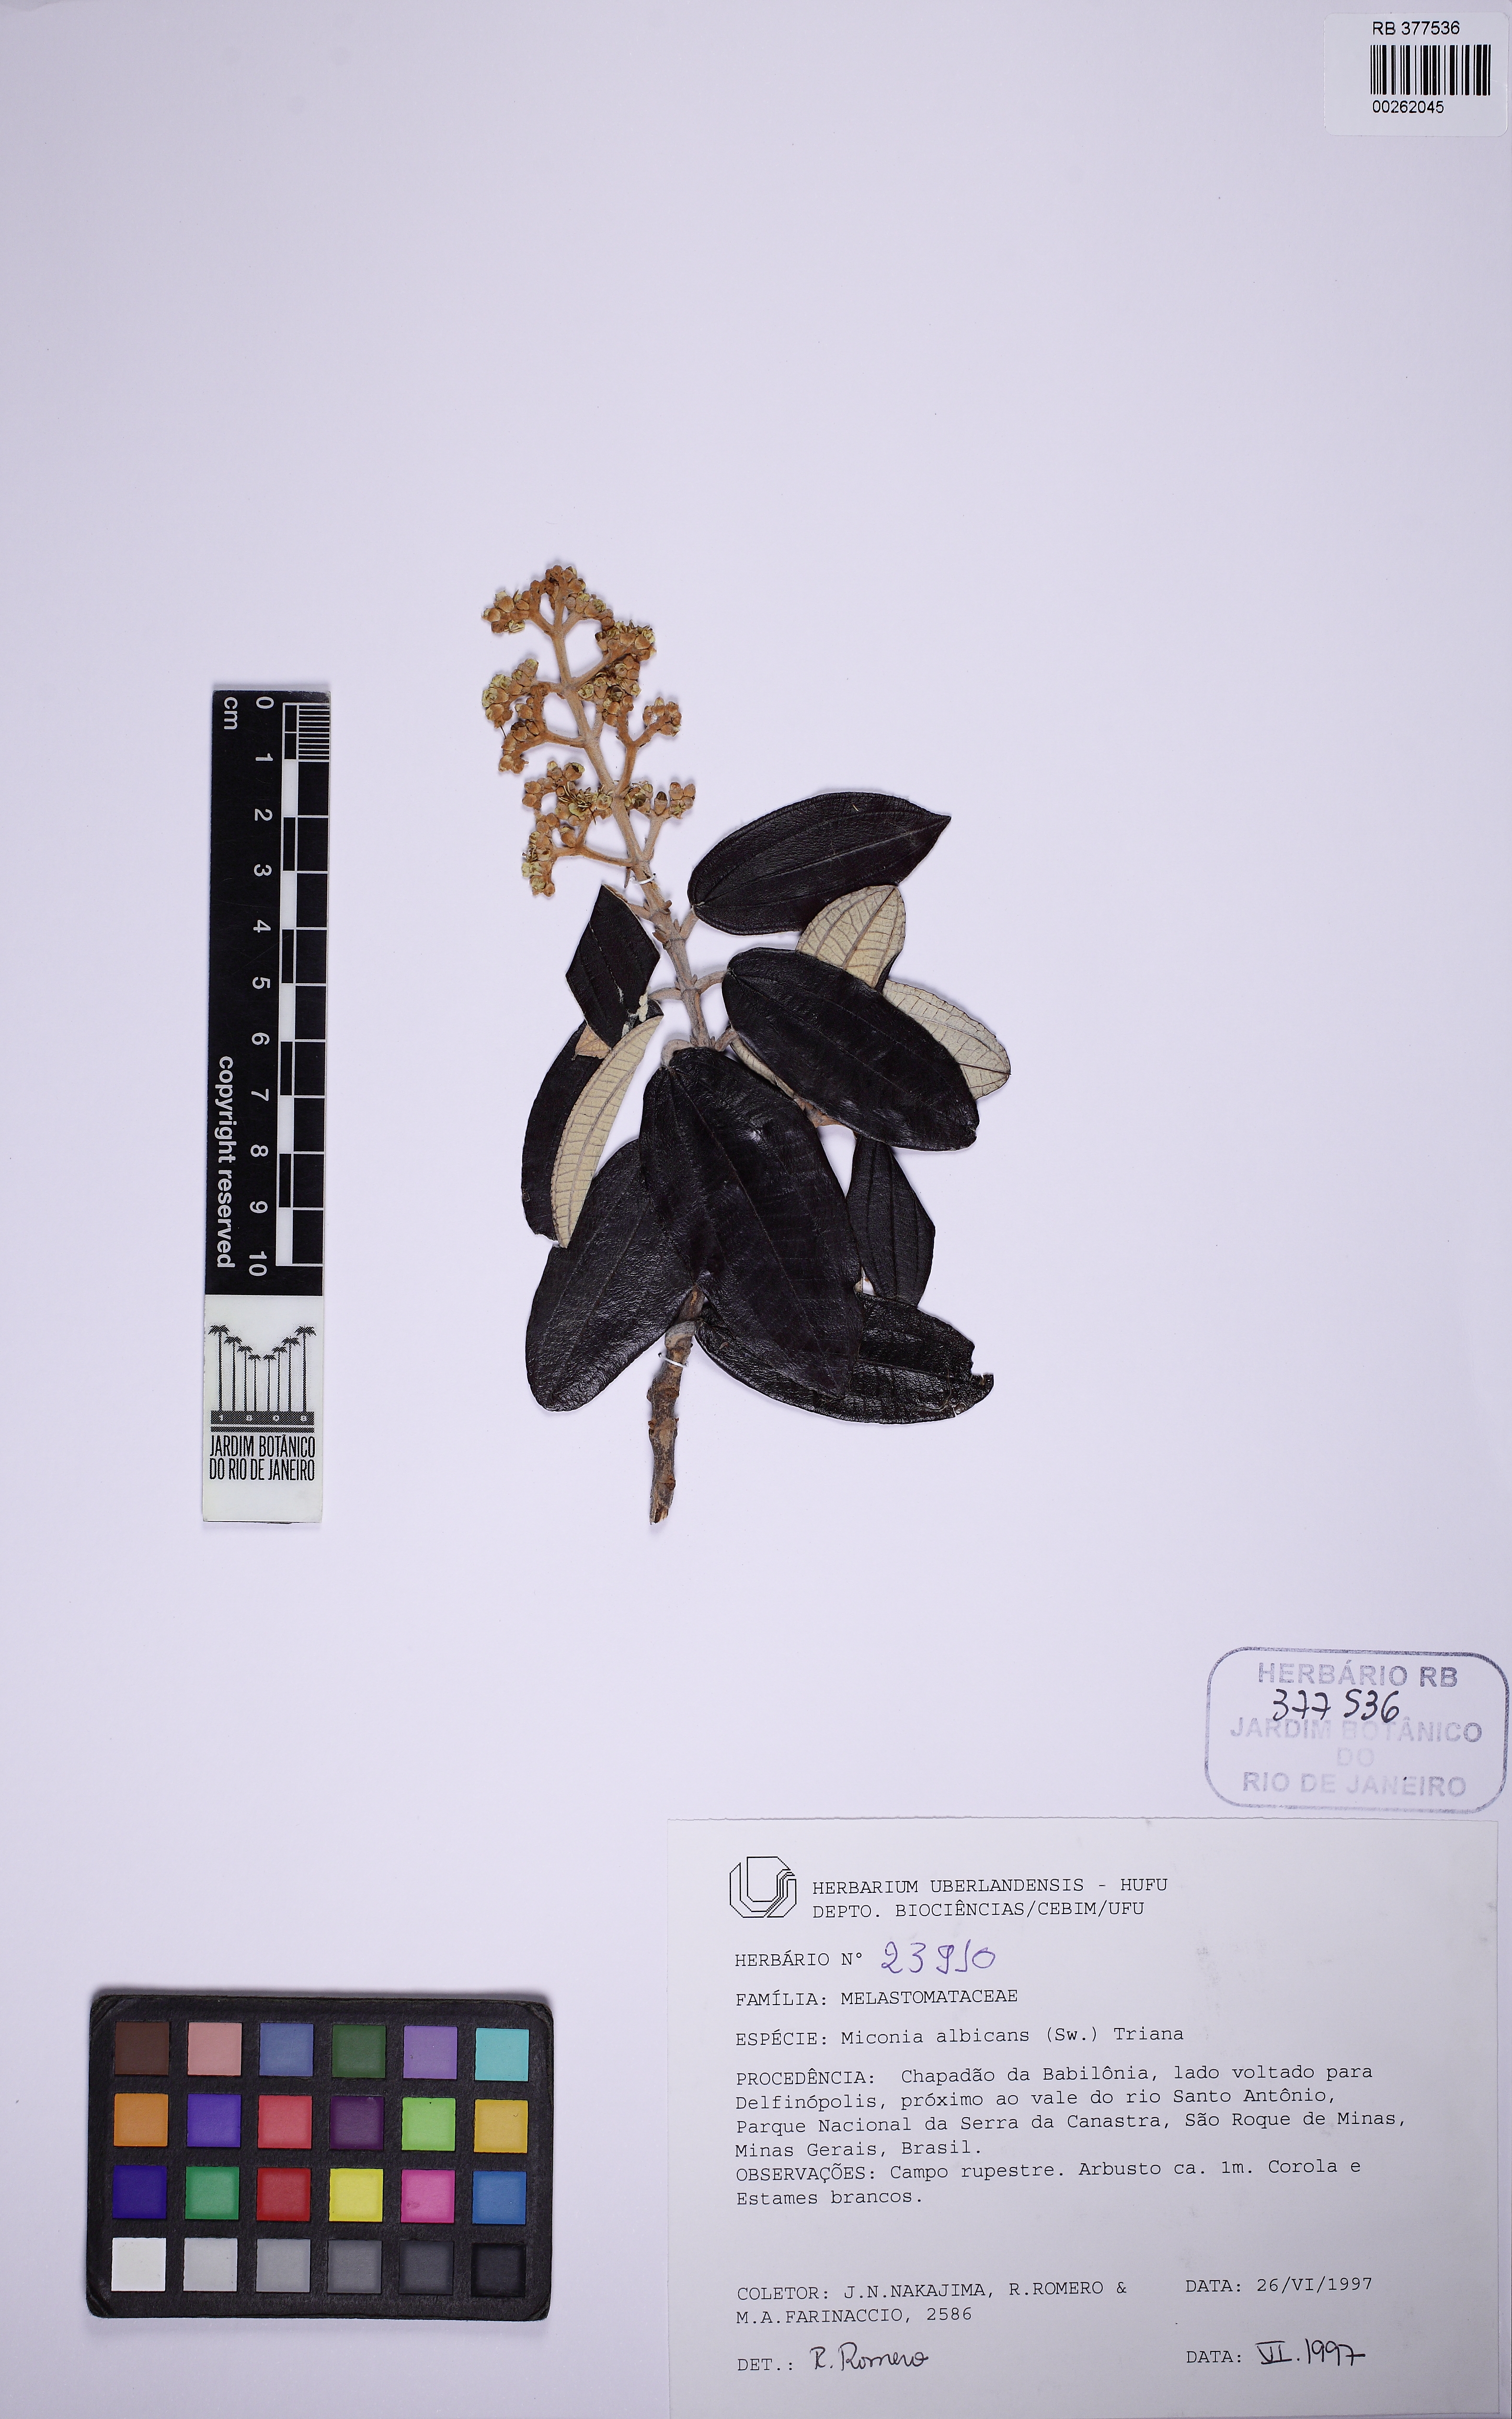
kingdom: Plantae
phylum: Tracheophyta
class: Magnoliopsida
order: Myrtales
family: Melastomataceae
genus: Miconia
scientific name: Miconia albicans
